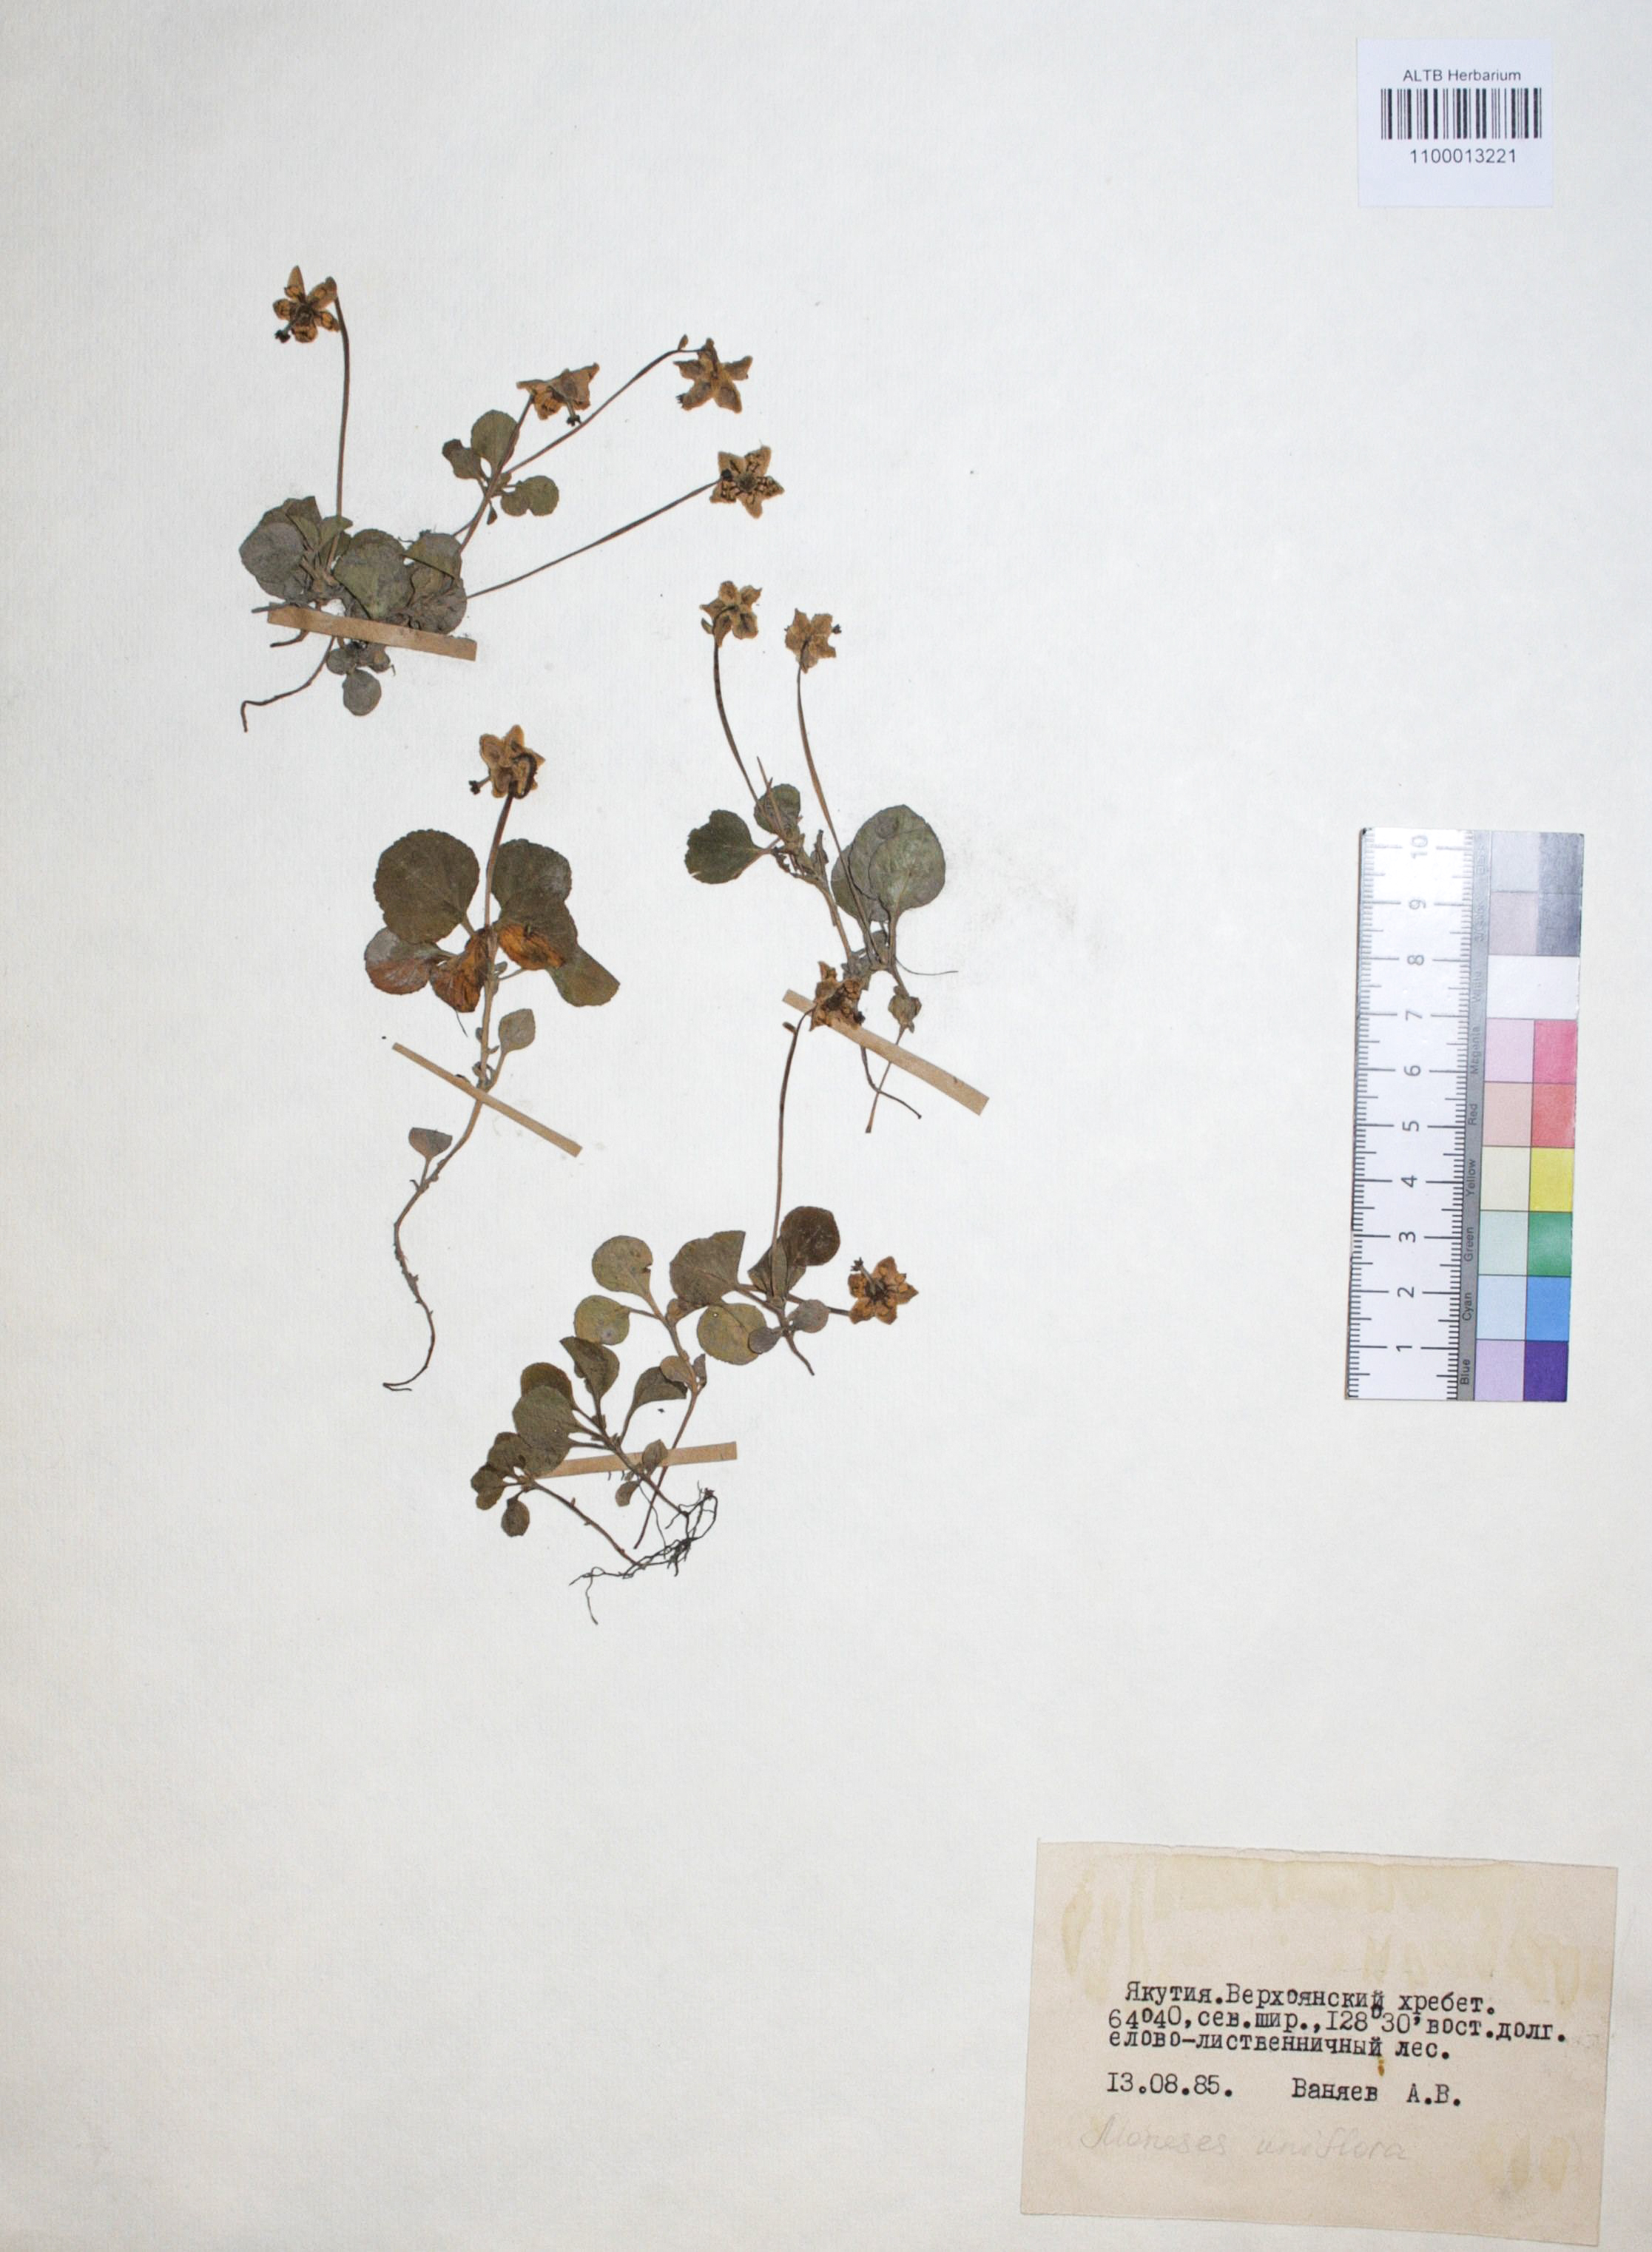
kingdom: Plantae
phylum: Tracheophyta
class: Magnoliopsida
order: Ericales
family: Ericaceae
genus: Moneses
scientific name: Moneses uniflora
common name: One-flowered wintergreen
